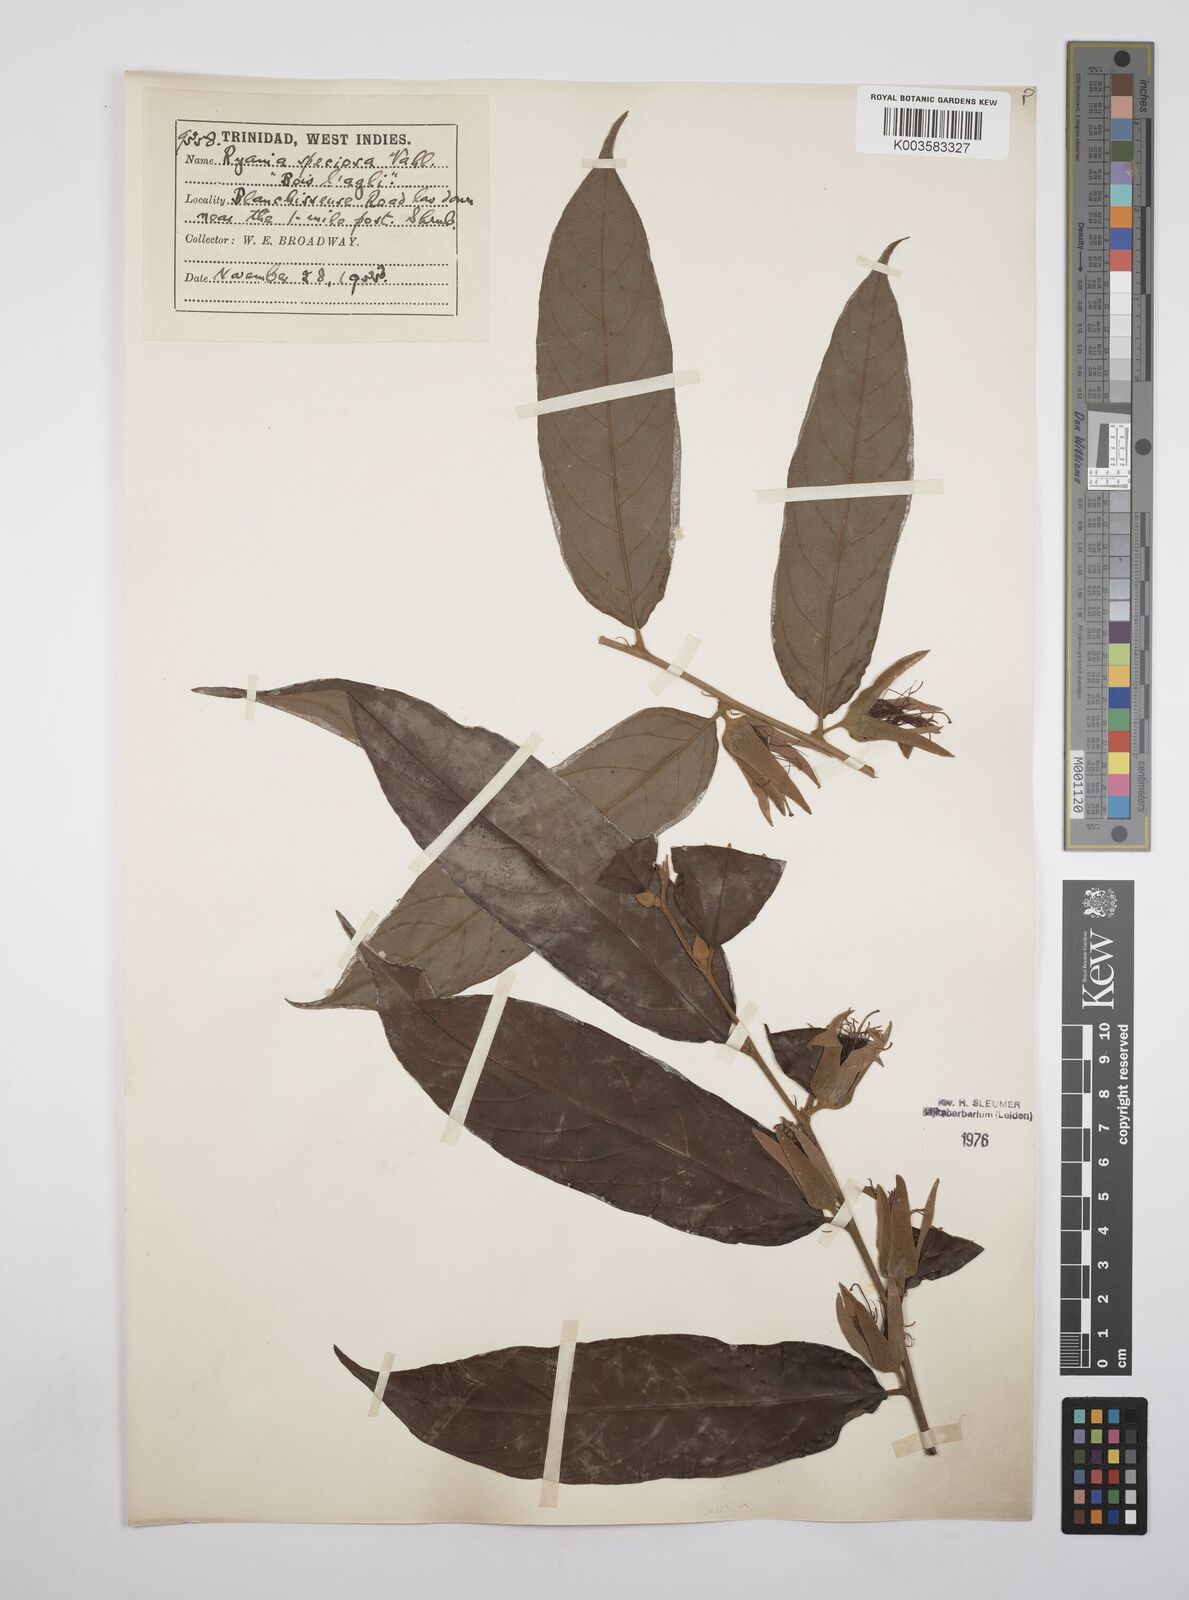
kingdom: Plantae
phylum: Tracheophyta
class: Magnoliopsida
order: Malpighiales
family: Salicaceae
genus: Ryania
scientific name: Ryania speciosa
